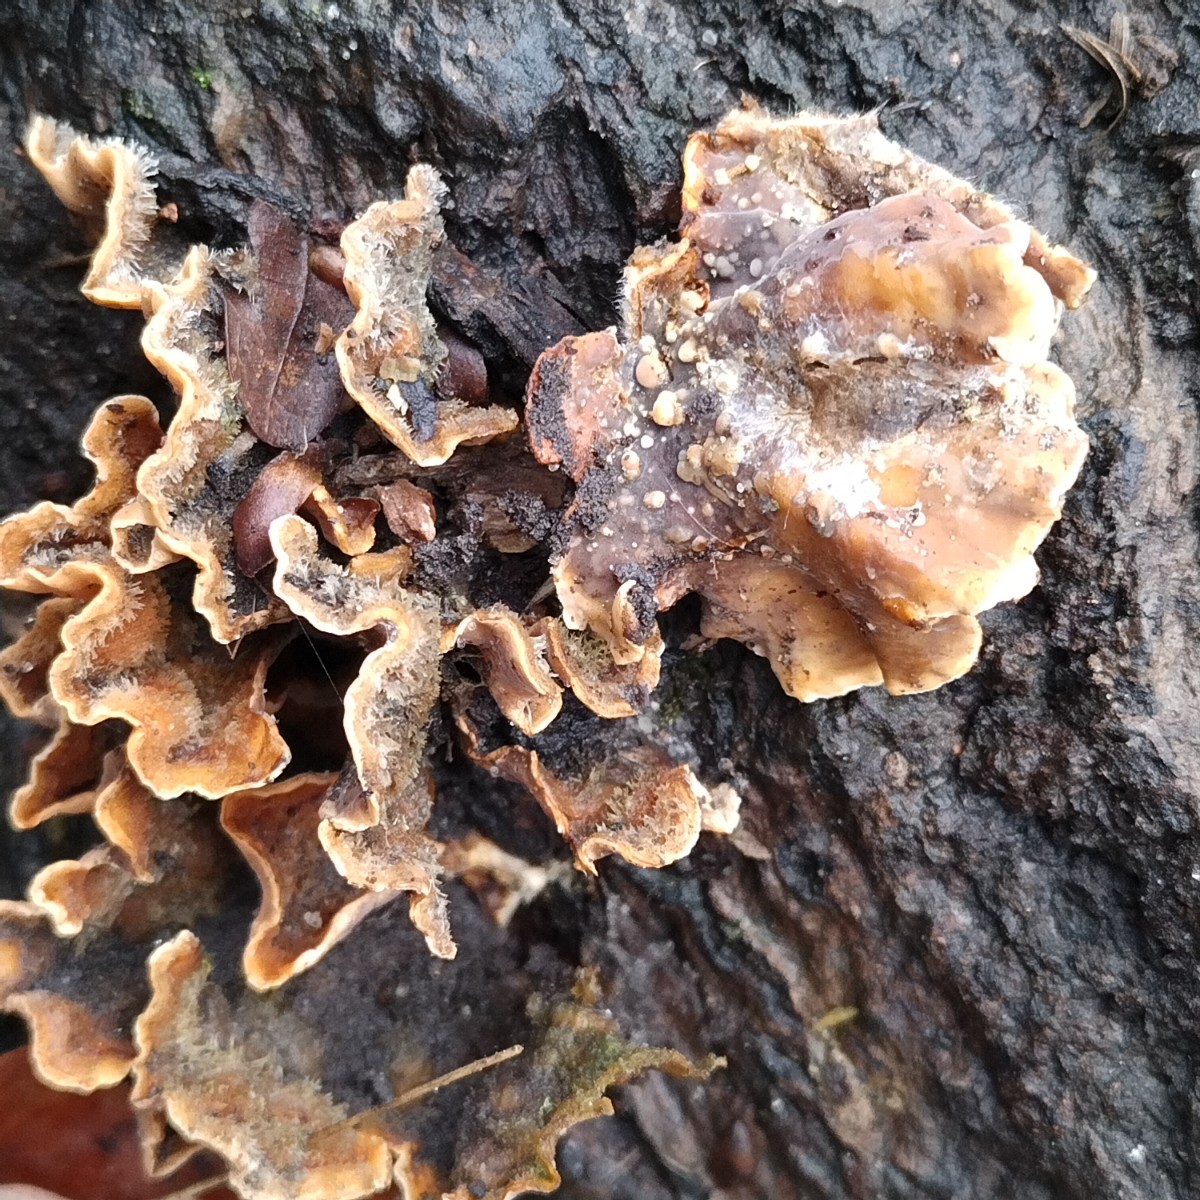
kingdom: Fungi
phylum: Basidiomycota
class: Agaricomycetes
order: Russulales
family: Stereaceae
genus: Stereum
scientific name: Stereum hirsutum
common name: håret lædersvamp
